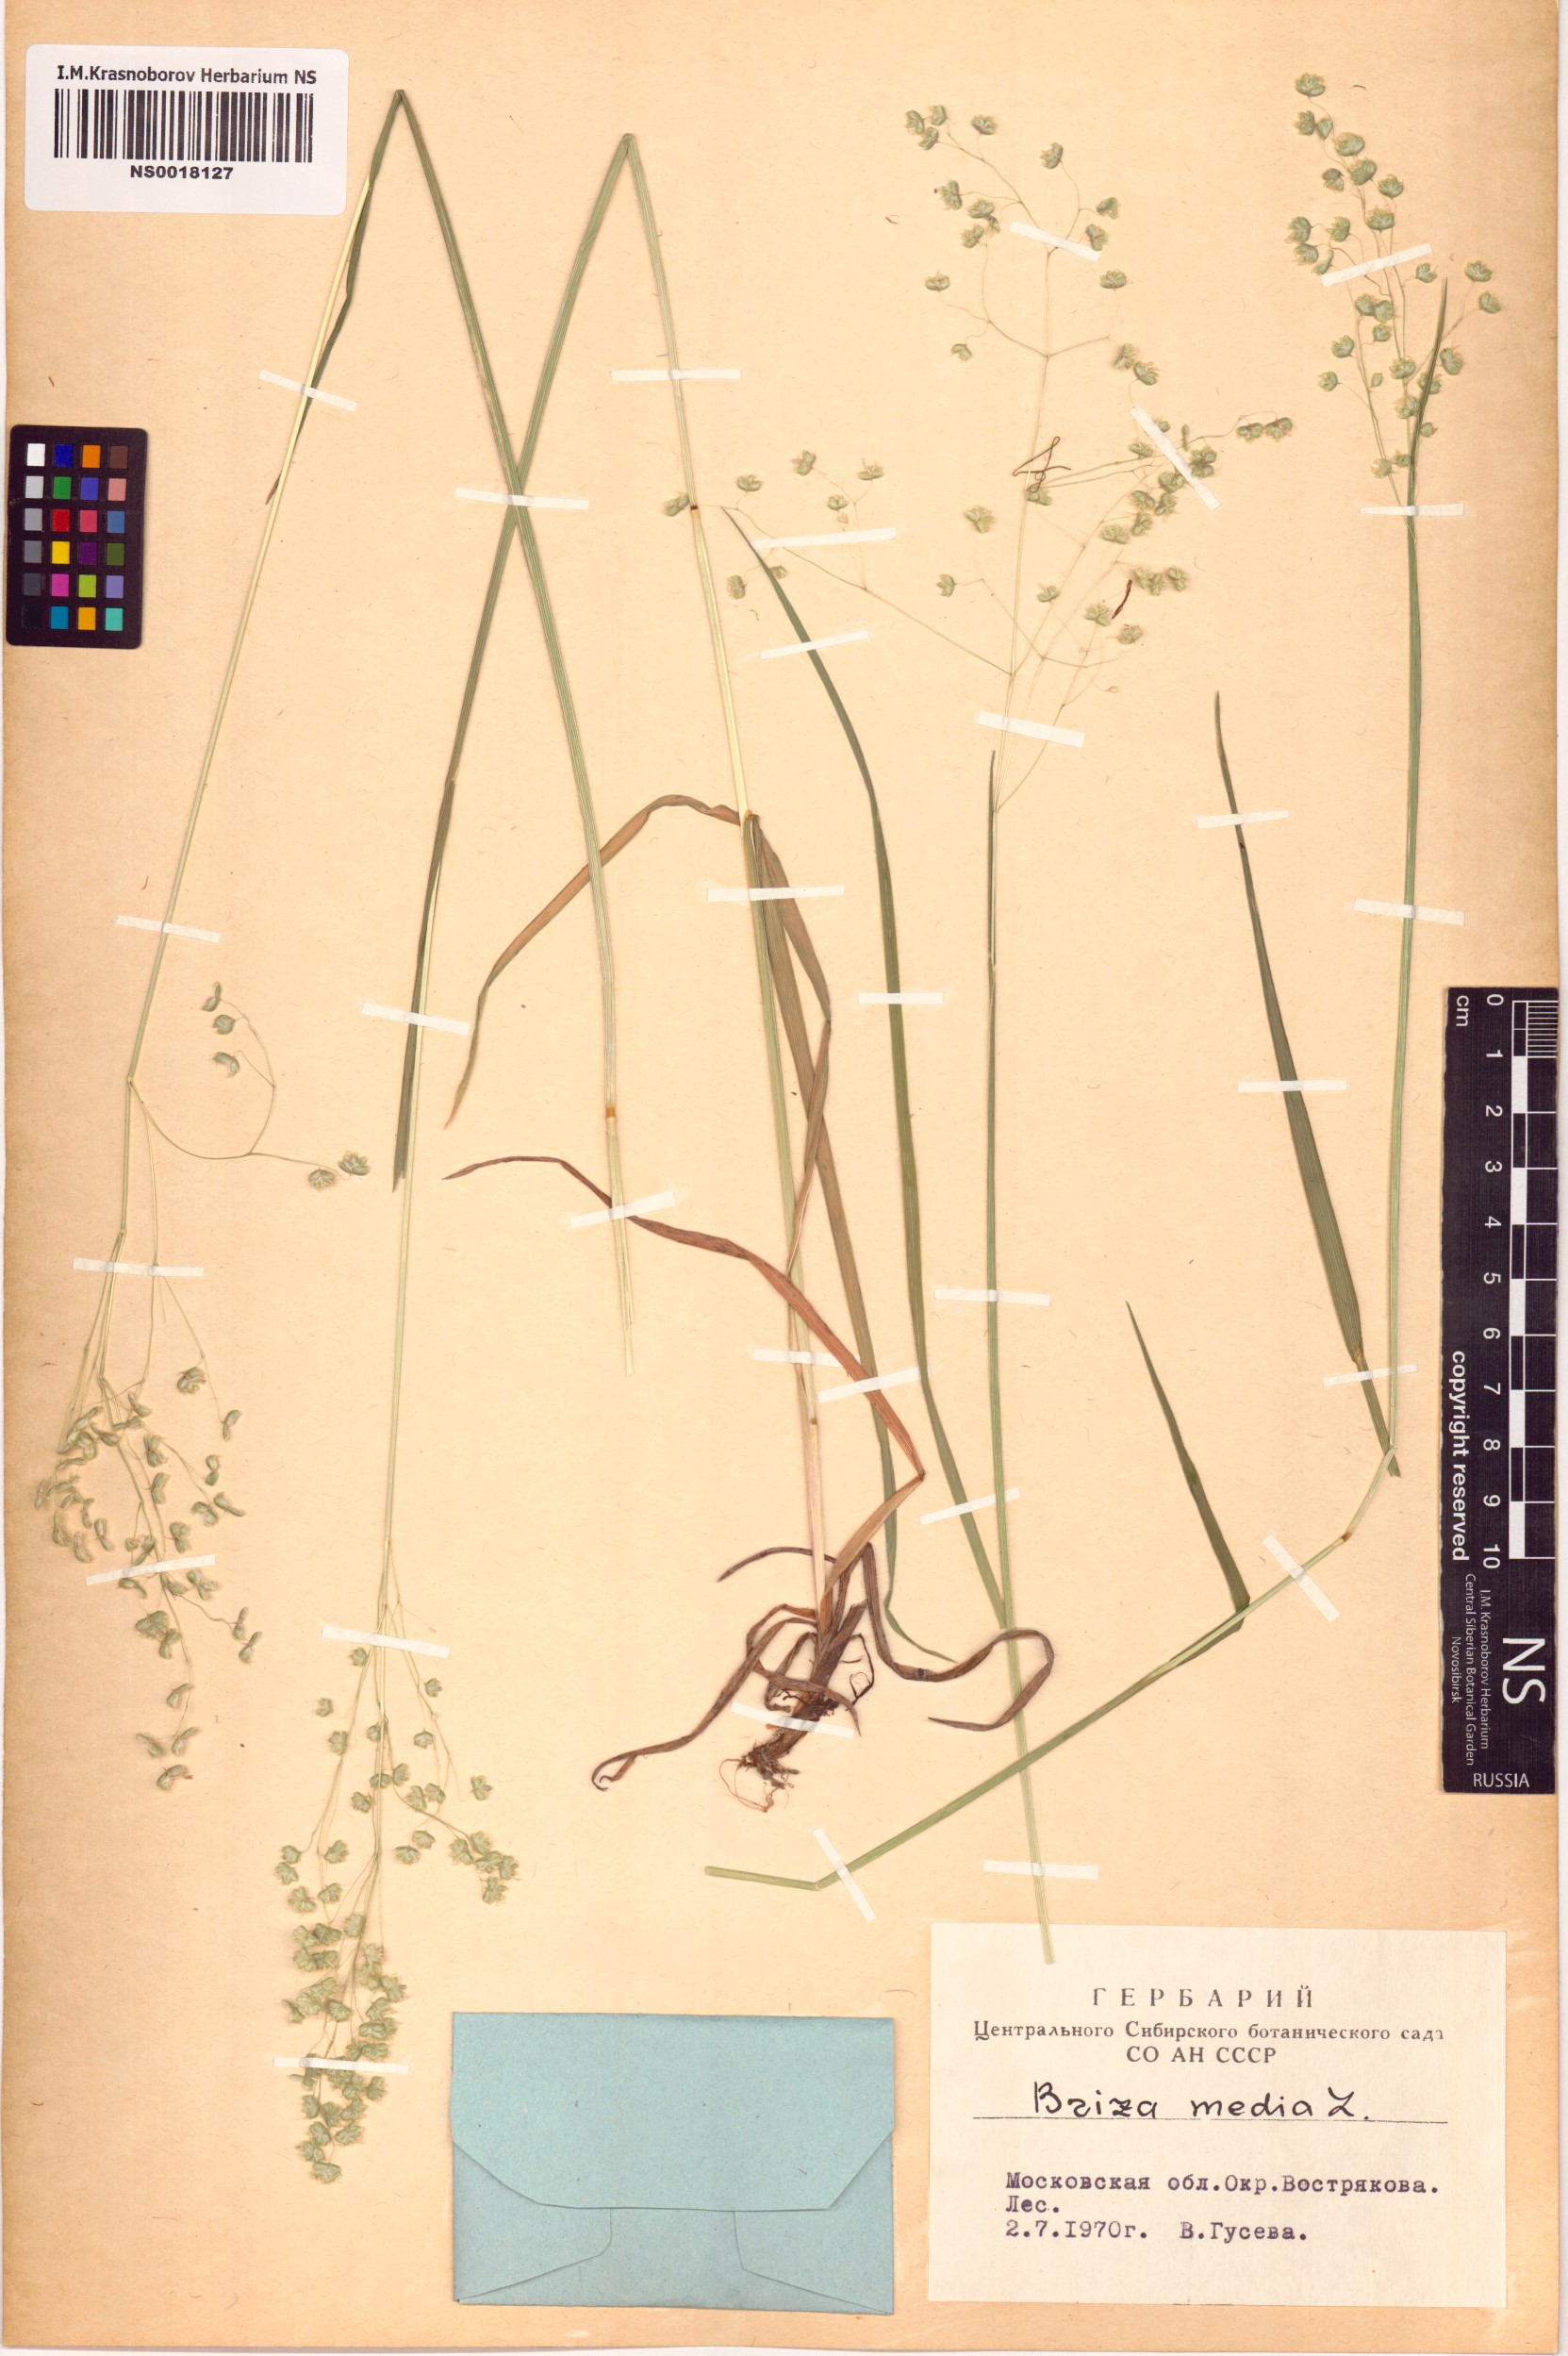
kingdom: Plantae
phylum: Tracheophyta
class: Liliopsida
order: Poales
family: Poaceae
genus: Briza
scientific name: Briza media
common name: Quaking grass
